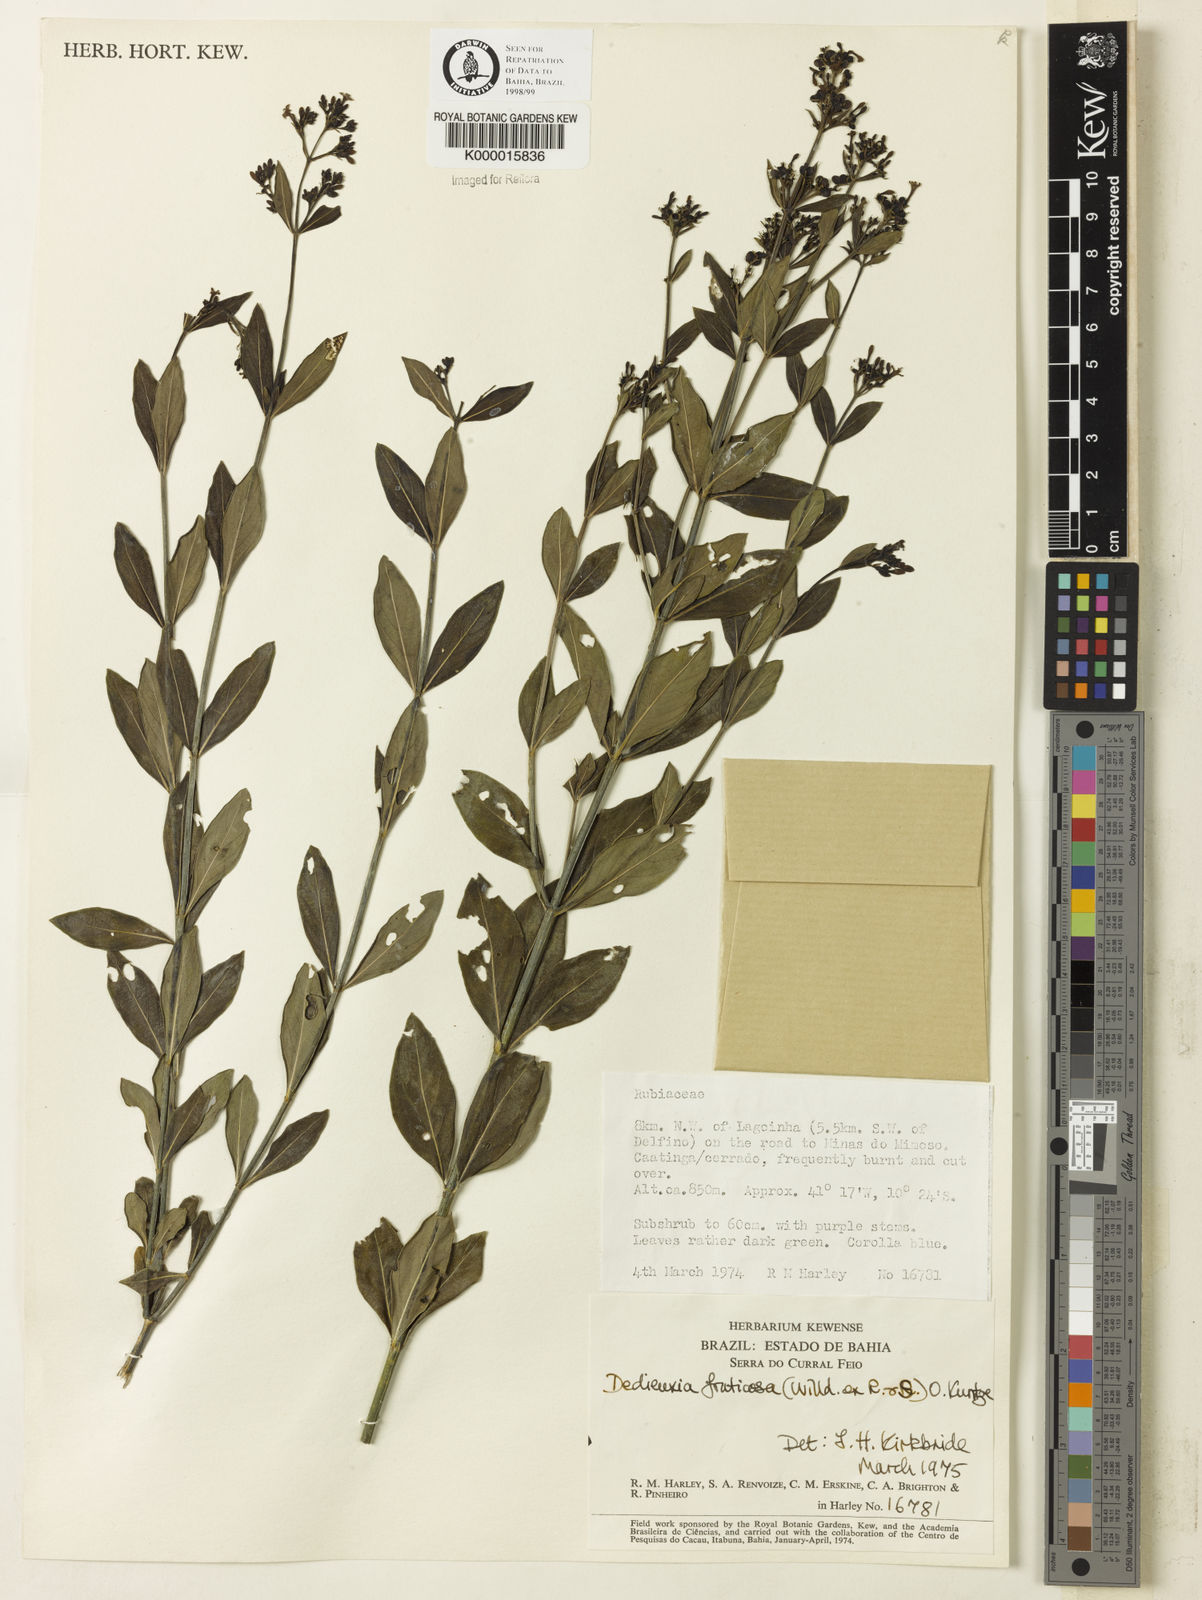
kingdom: Plantae
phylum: Tracheophyta
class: Magnoliopsida
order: Gentianales
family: Rubiaceae
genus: Declieuxia
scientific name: Declieuxia fruticosa
